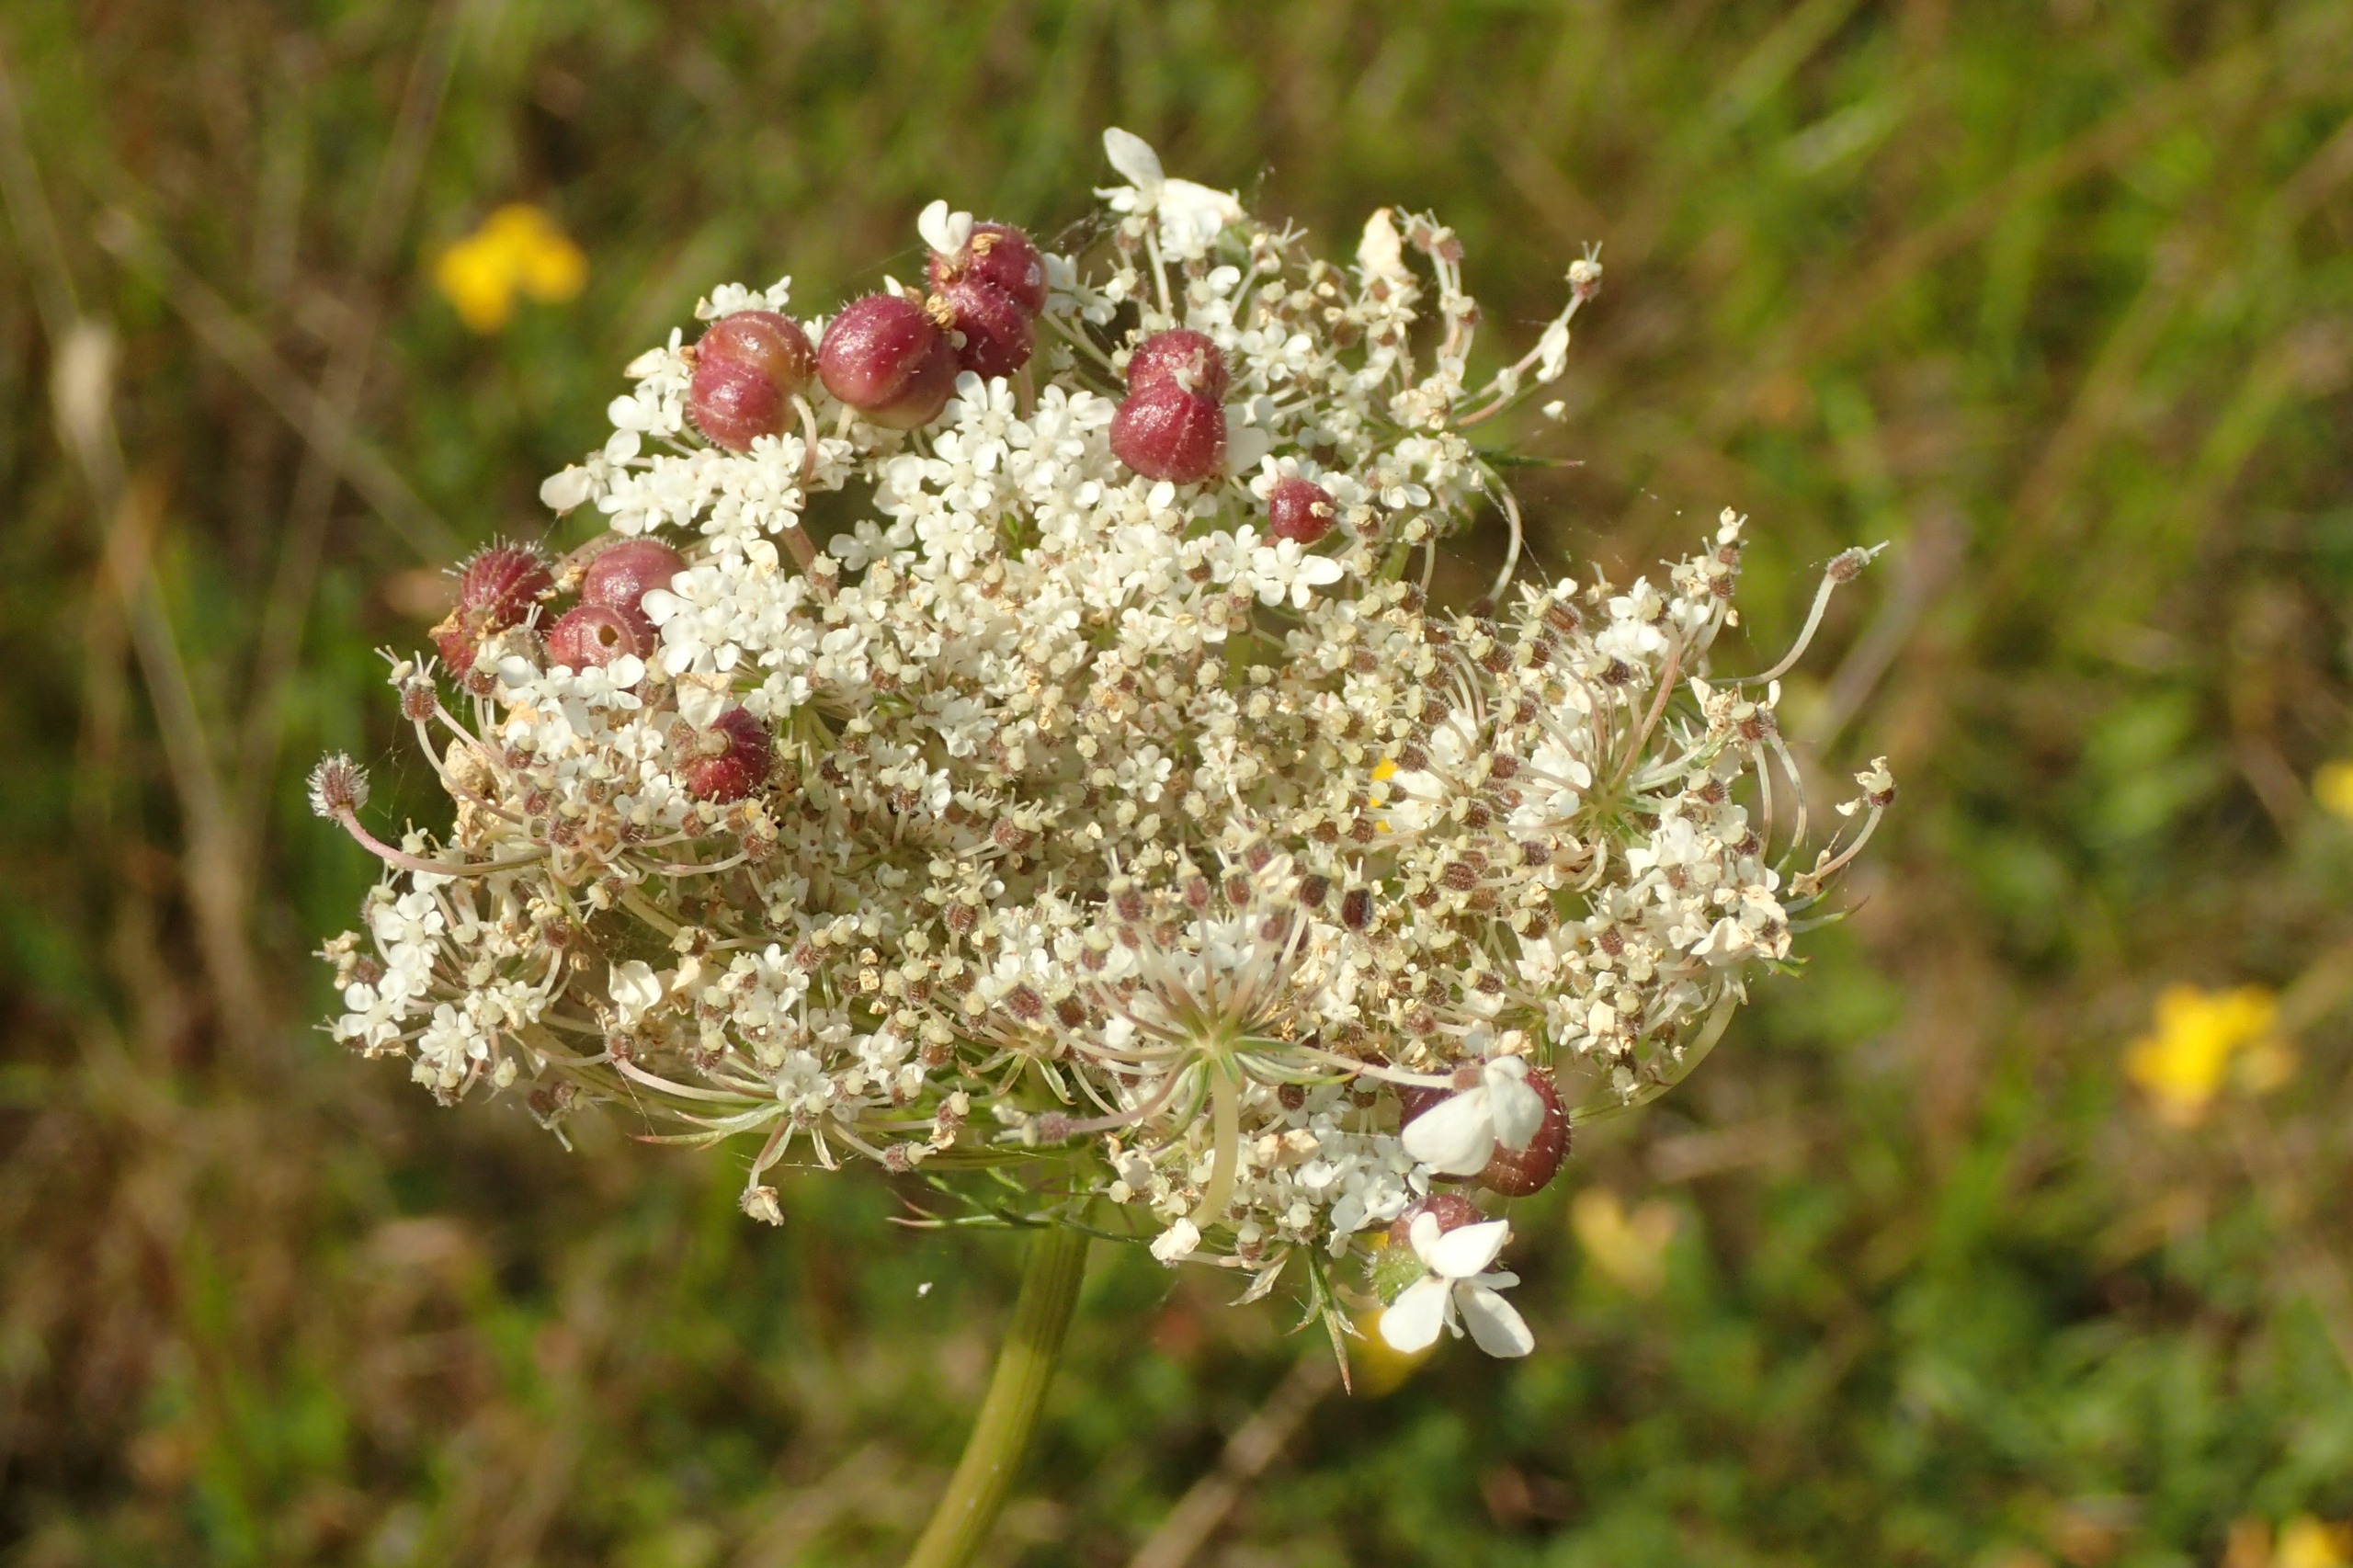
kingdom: Animalia
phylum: Arthropoda
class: Insecta
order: Diptera
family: Cecidomyiidae
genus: Kiefferia
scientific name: Kiefferia pericarpiicola
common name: Gulerodsgalmyg
